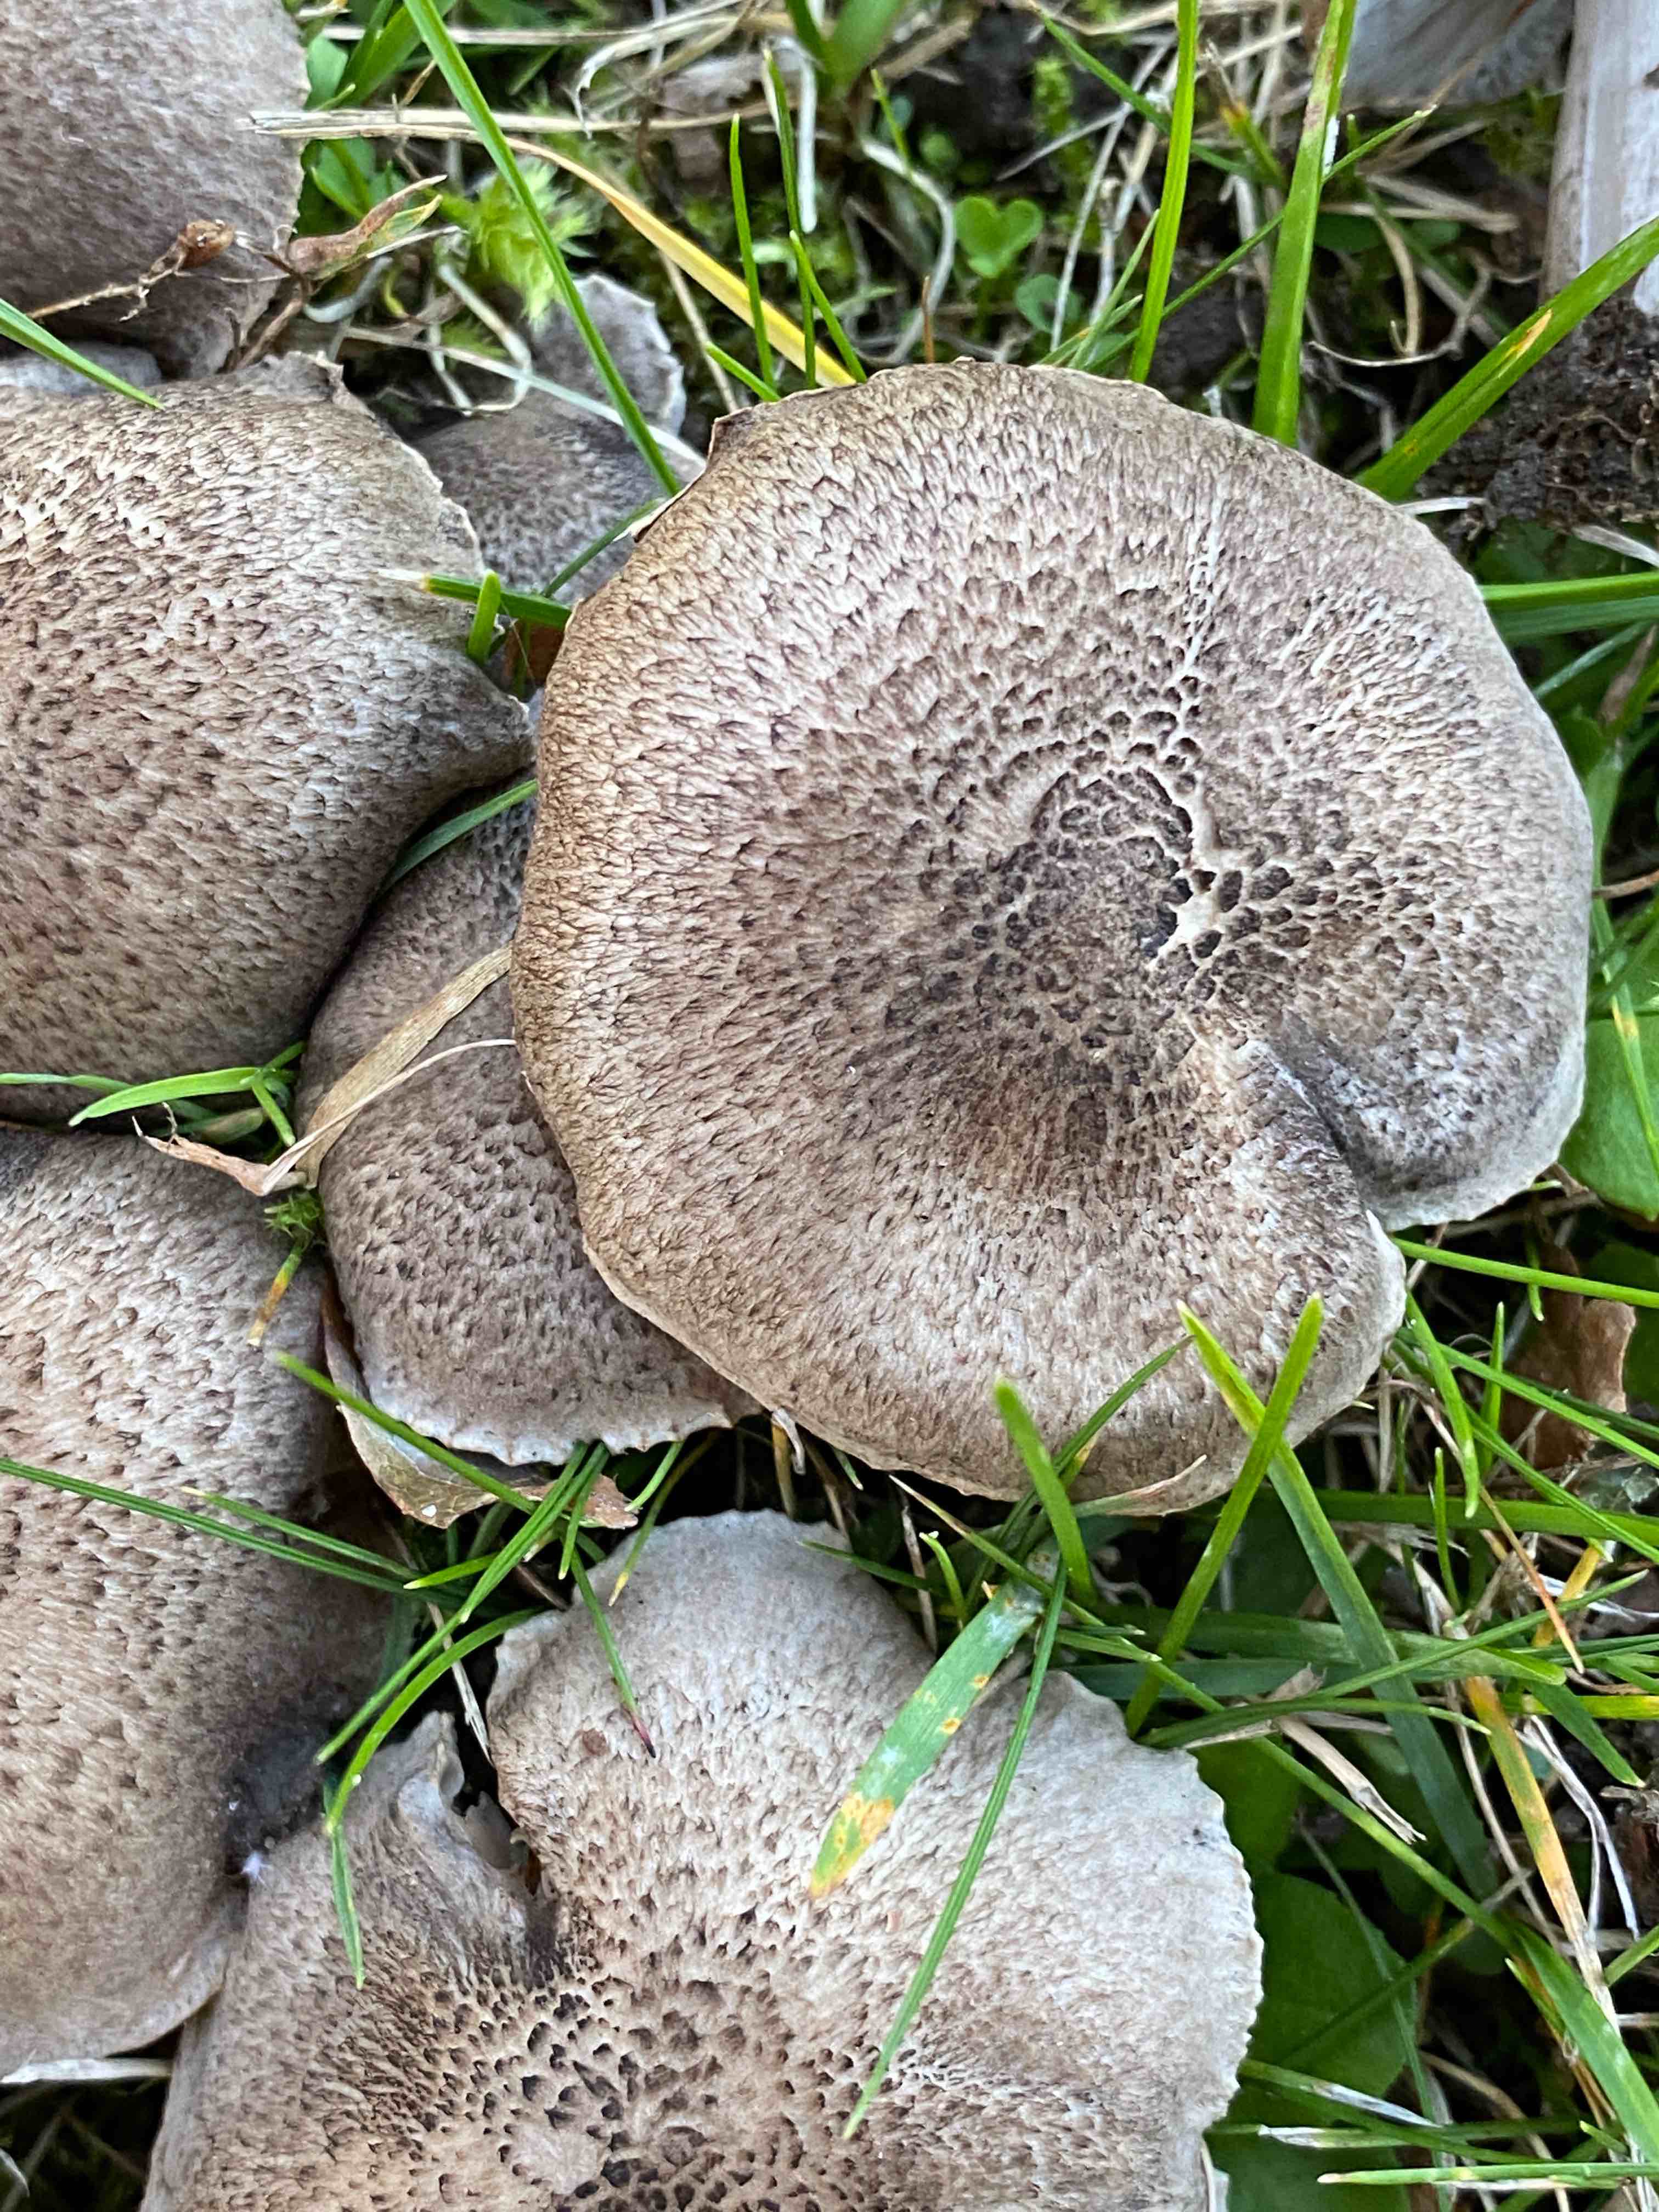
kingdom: Fungi
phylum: Basidiomycota
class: Agaricomycetes
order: Agaricales
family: Tricholomataceae
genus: Tricholoma
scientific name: Tricholoma scalpturatum
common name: gulplettet ridderhat
